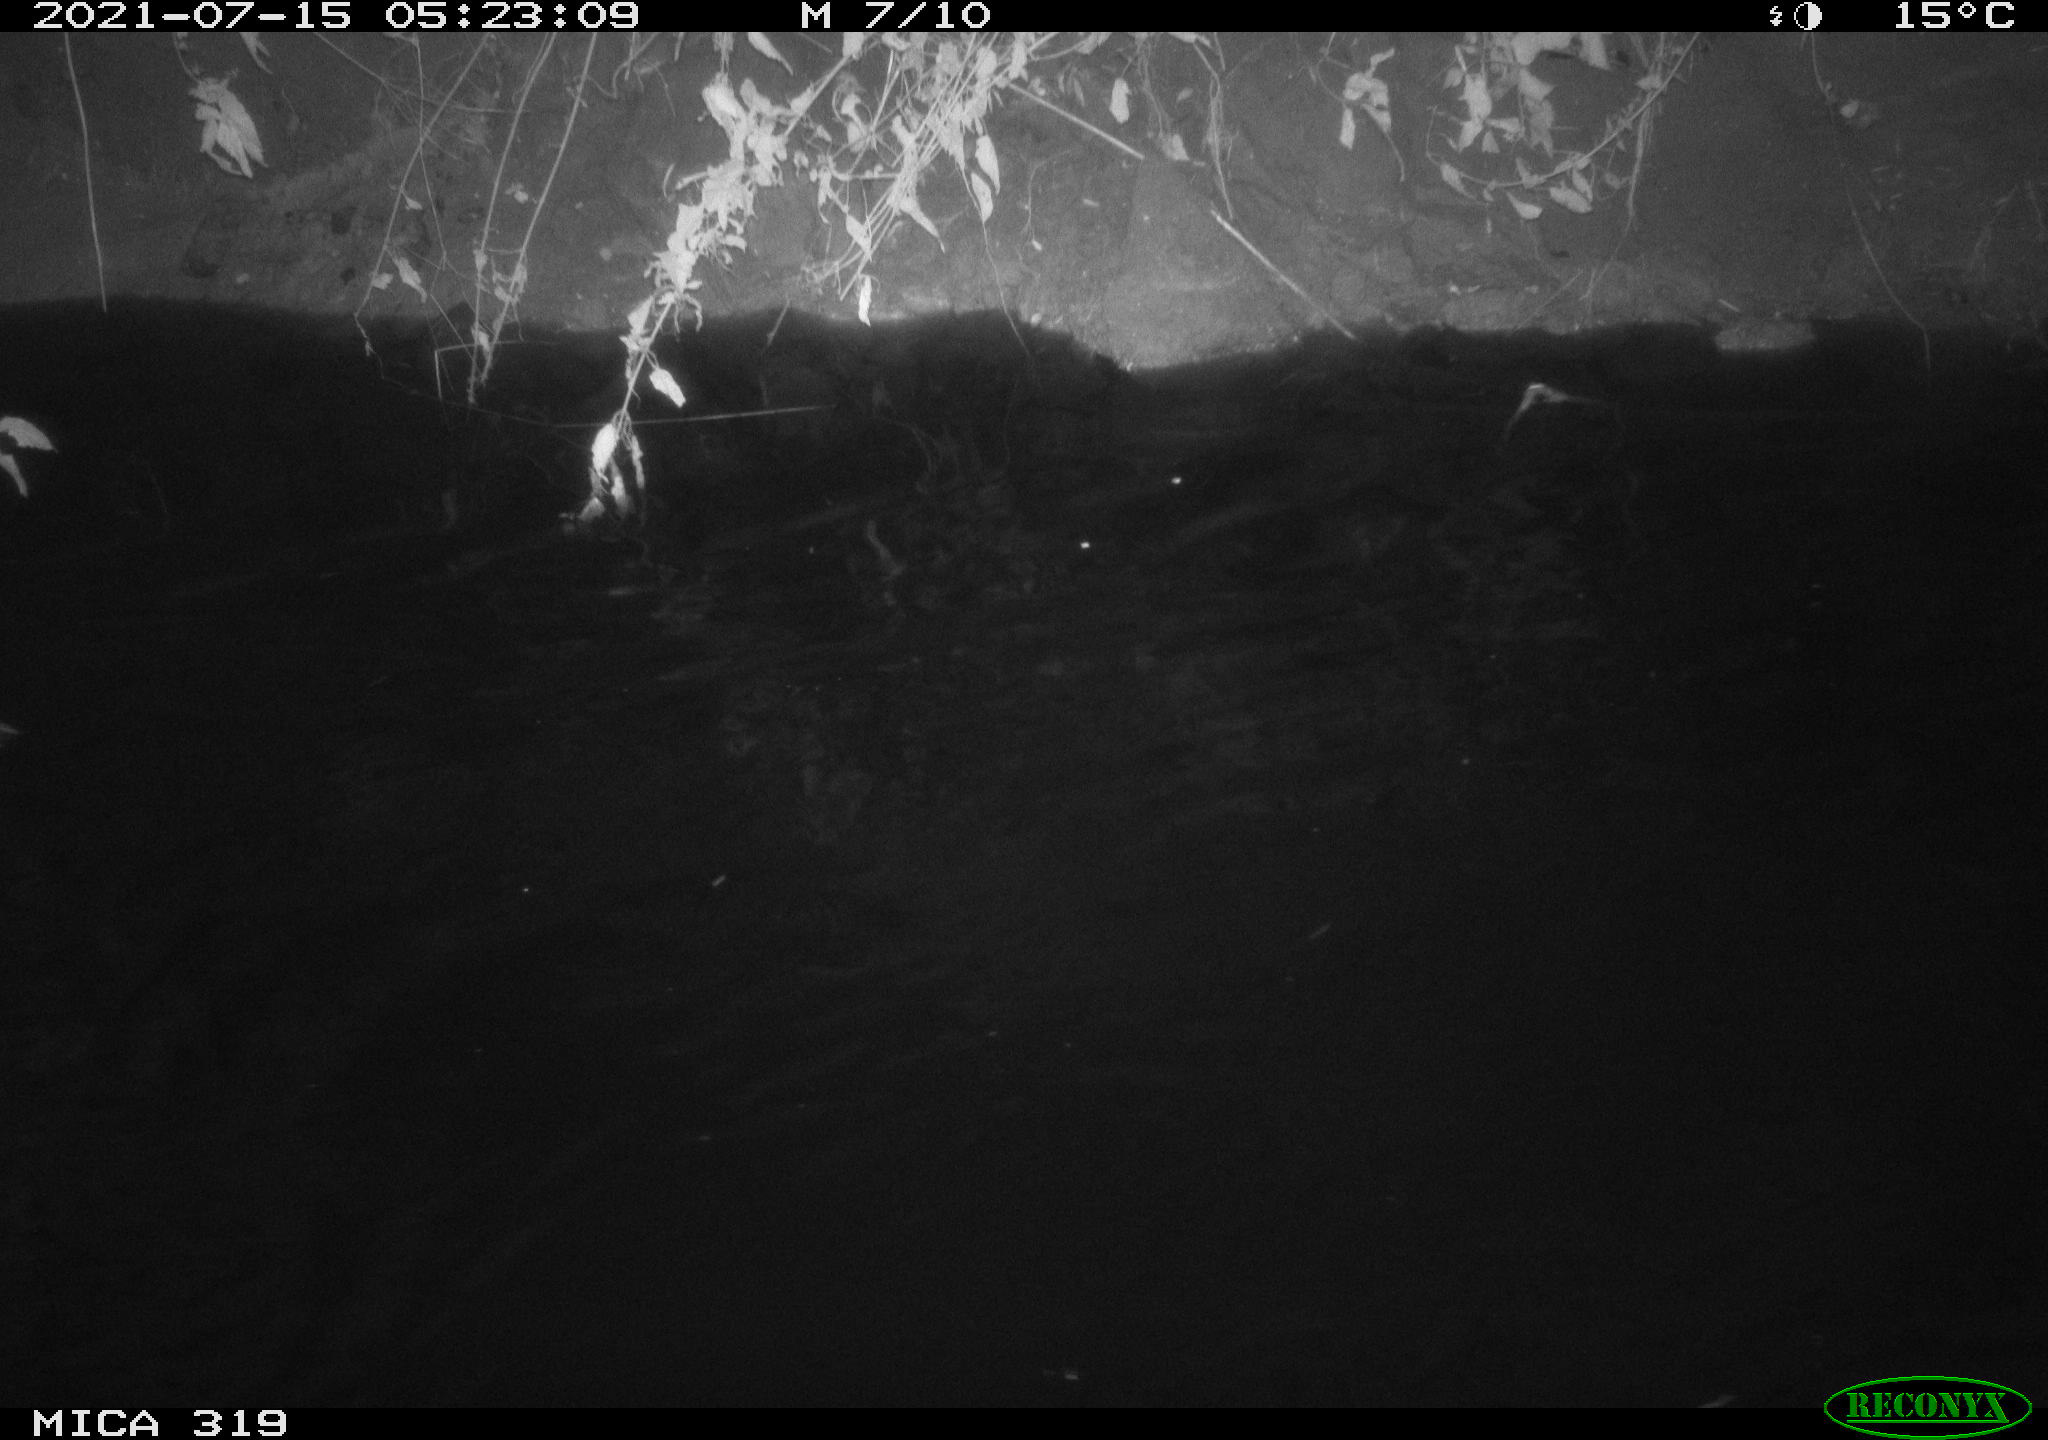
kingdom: Animalia
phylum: Chordata
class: Aves
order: Anseriformes
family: Anatidae
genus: Anas
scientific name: Anas platyrhynchos
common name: Mallard
